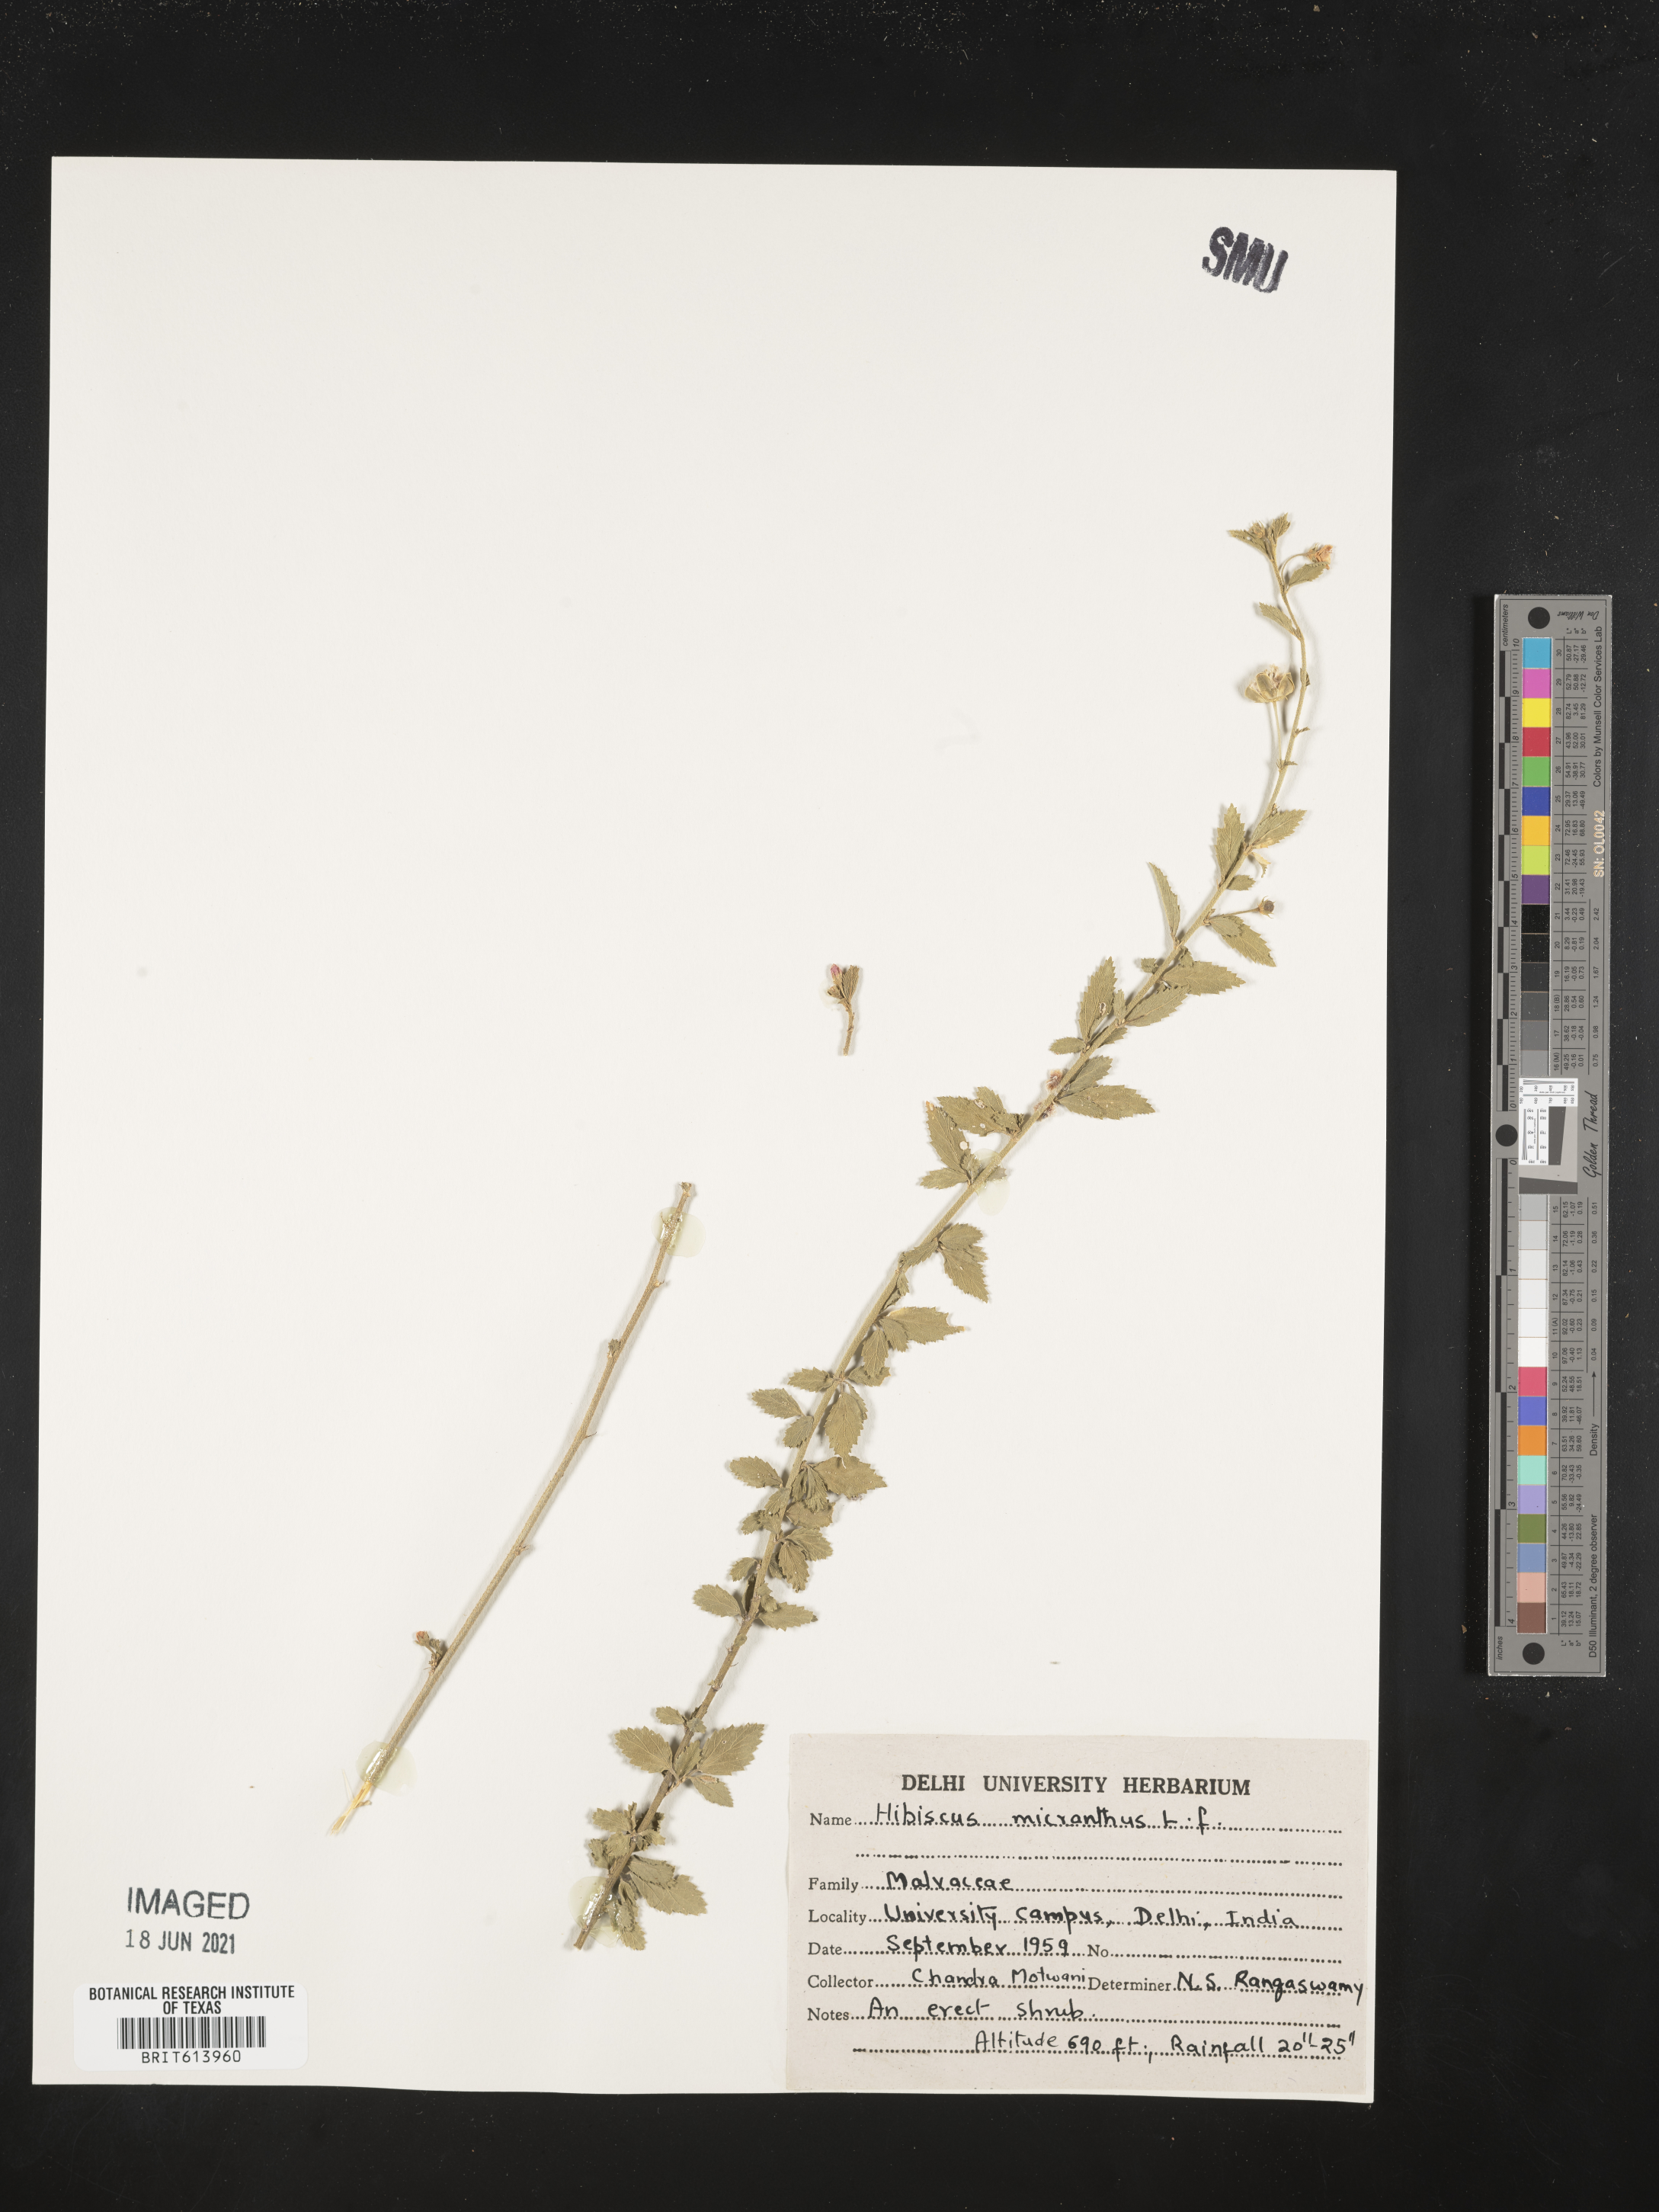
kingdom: Plantae
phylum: Tracheophyta
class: Magnoliopsida
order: Malvales
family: Malvaceae
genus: Hibiscus
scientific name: Hibiscus micranthus
